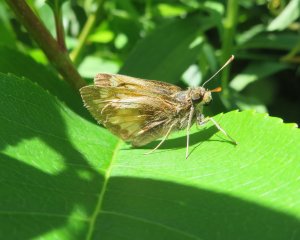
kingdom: Animalia
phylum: Arthropoda
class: Insecta
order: Lepidoptera
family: Hesperiidae
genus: Lon
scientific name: Lon hobomok
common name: Hobomok Skipper
